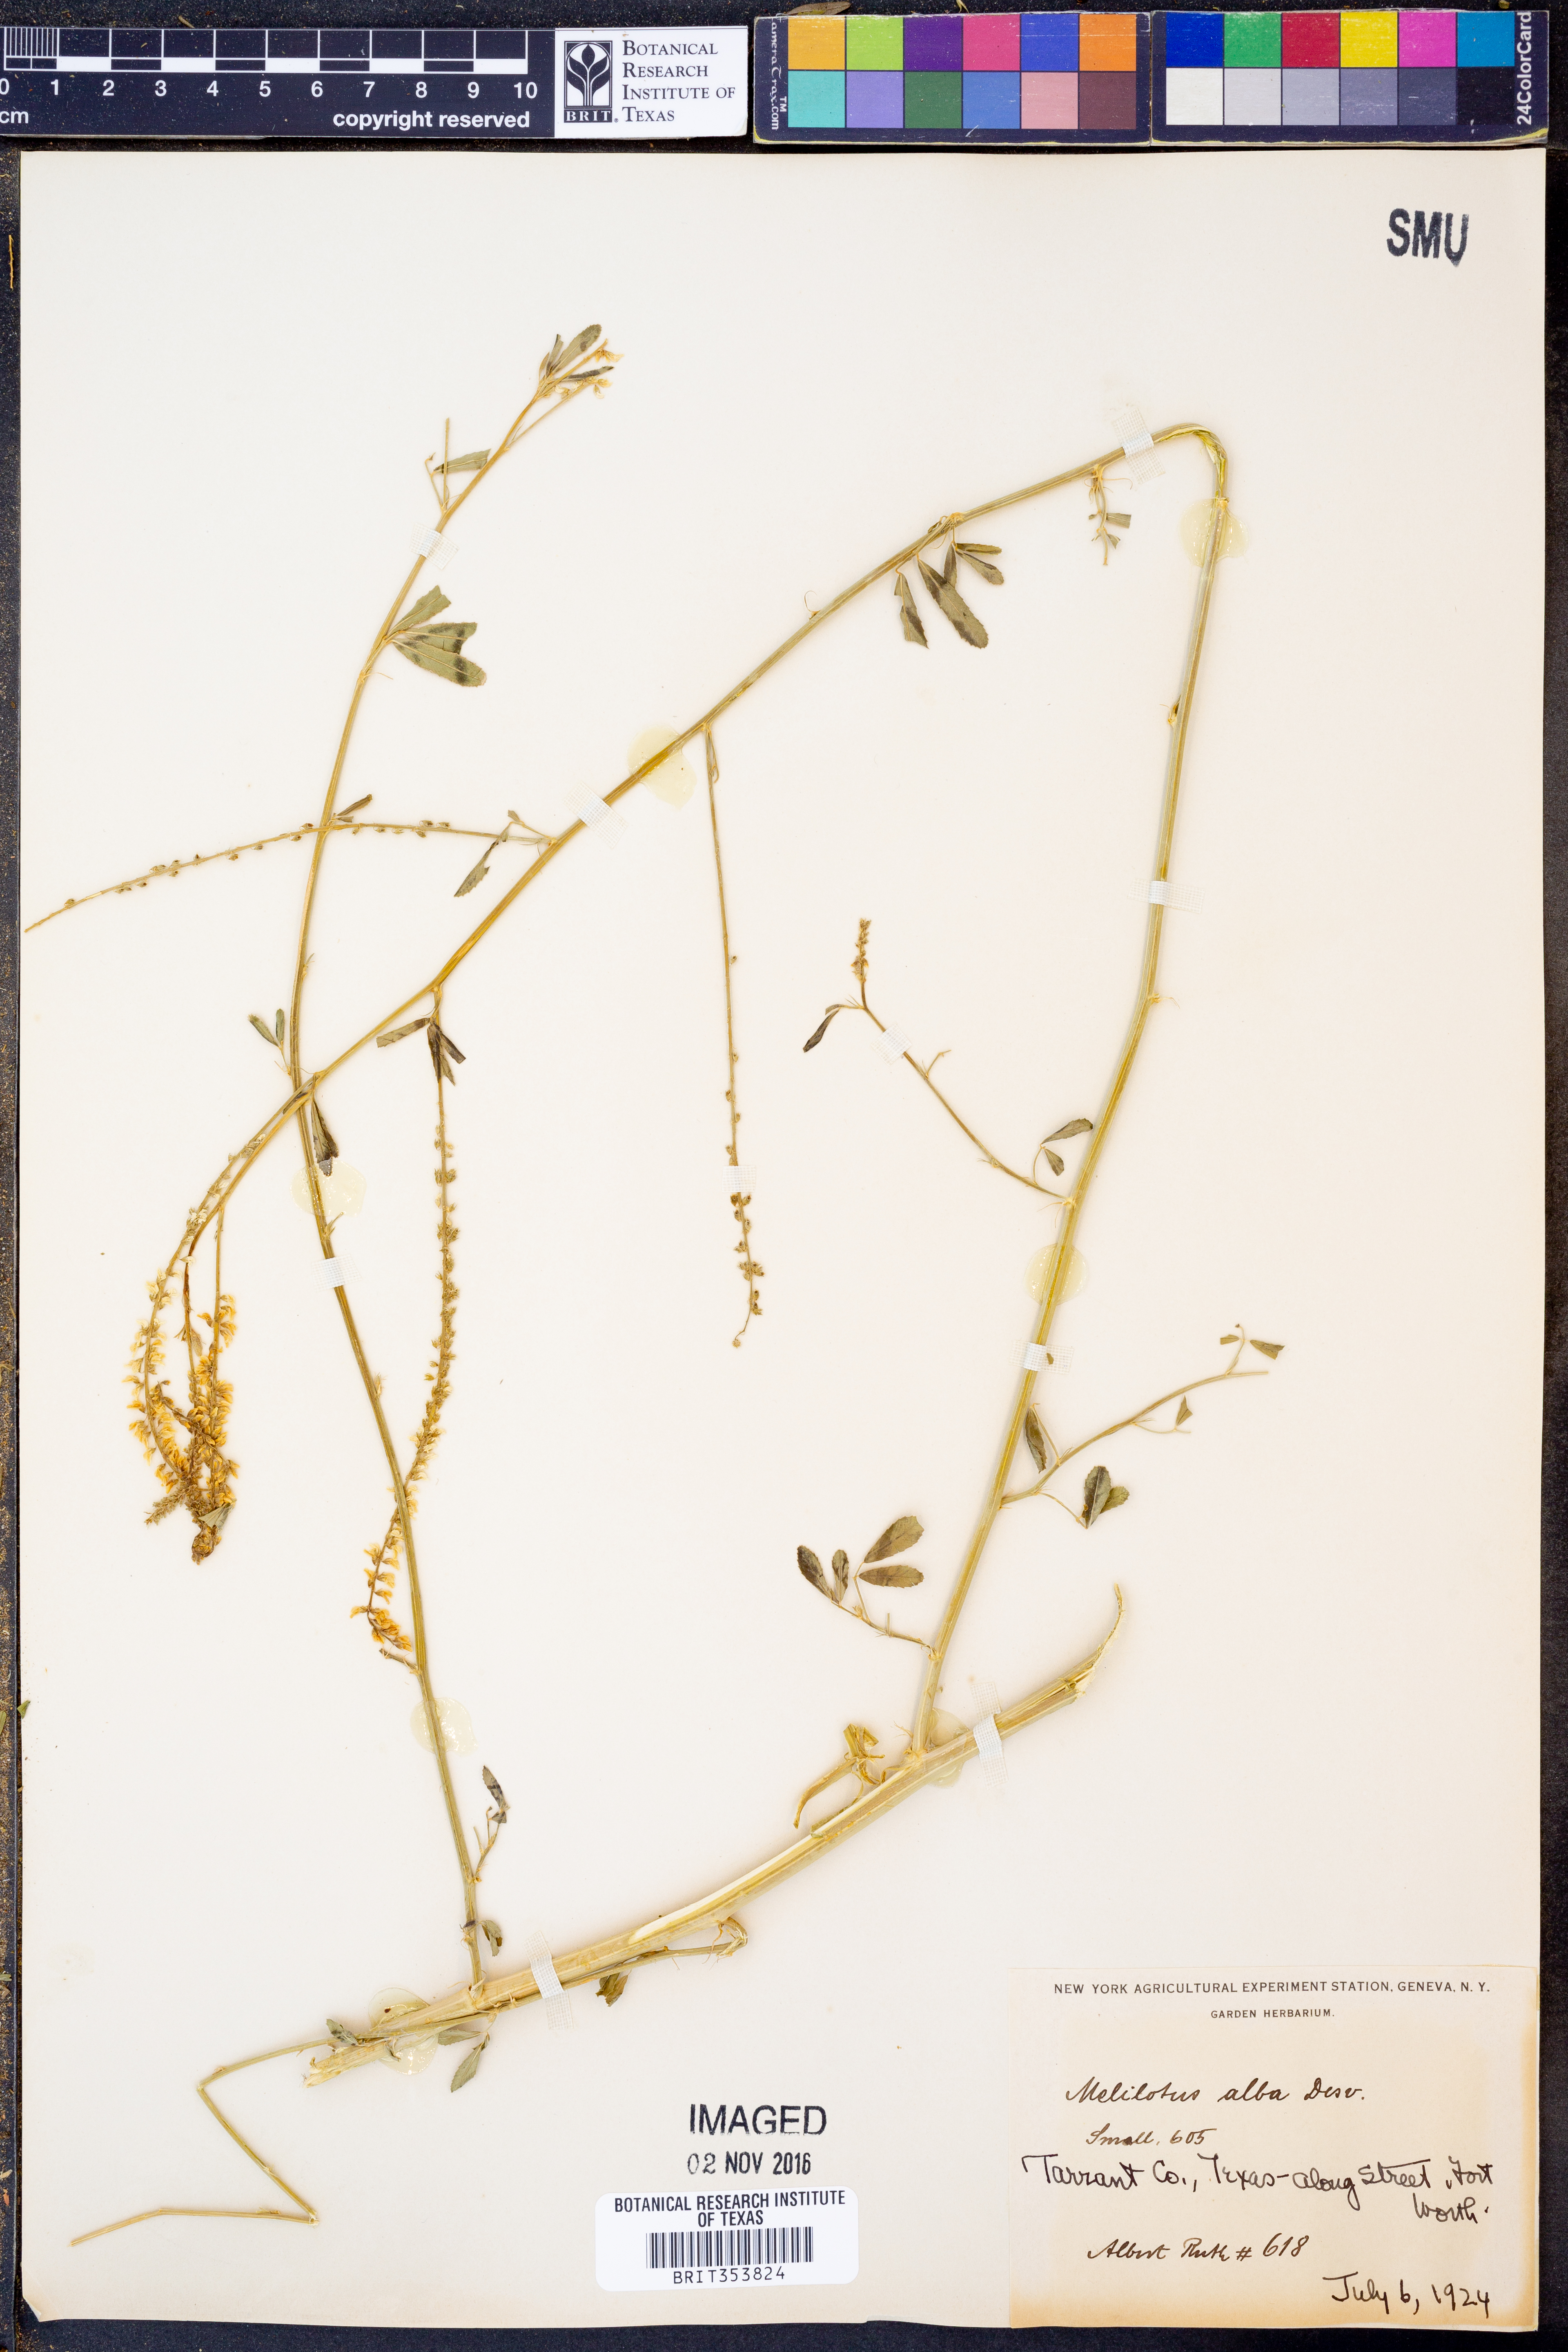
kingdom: Plantae
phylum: Tracheophyta
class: Magnoliopsida
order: Fabales
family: Fabaceae
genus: Melilotus
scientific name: Melilotus albus
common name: White melilot
